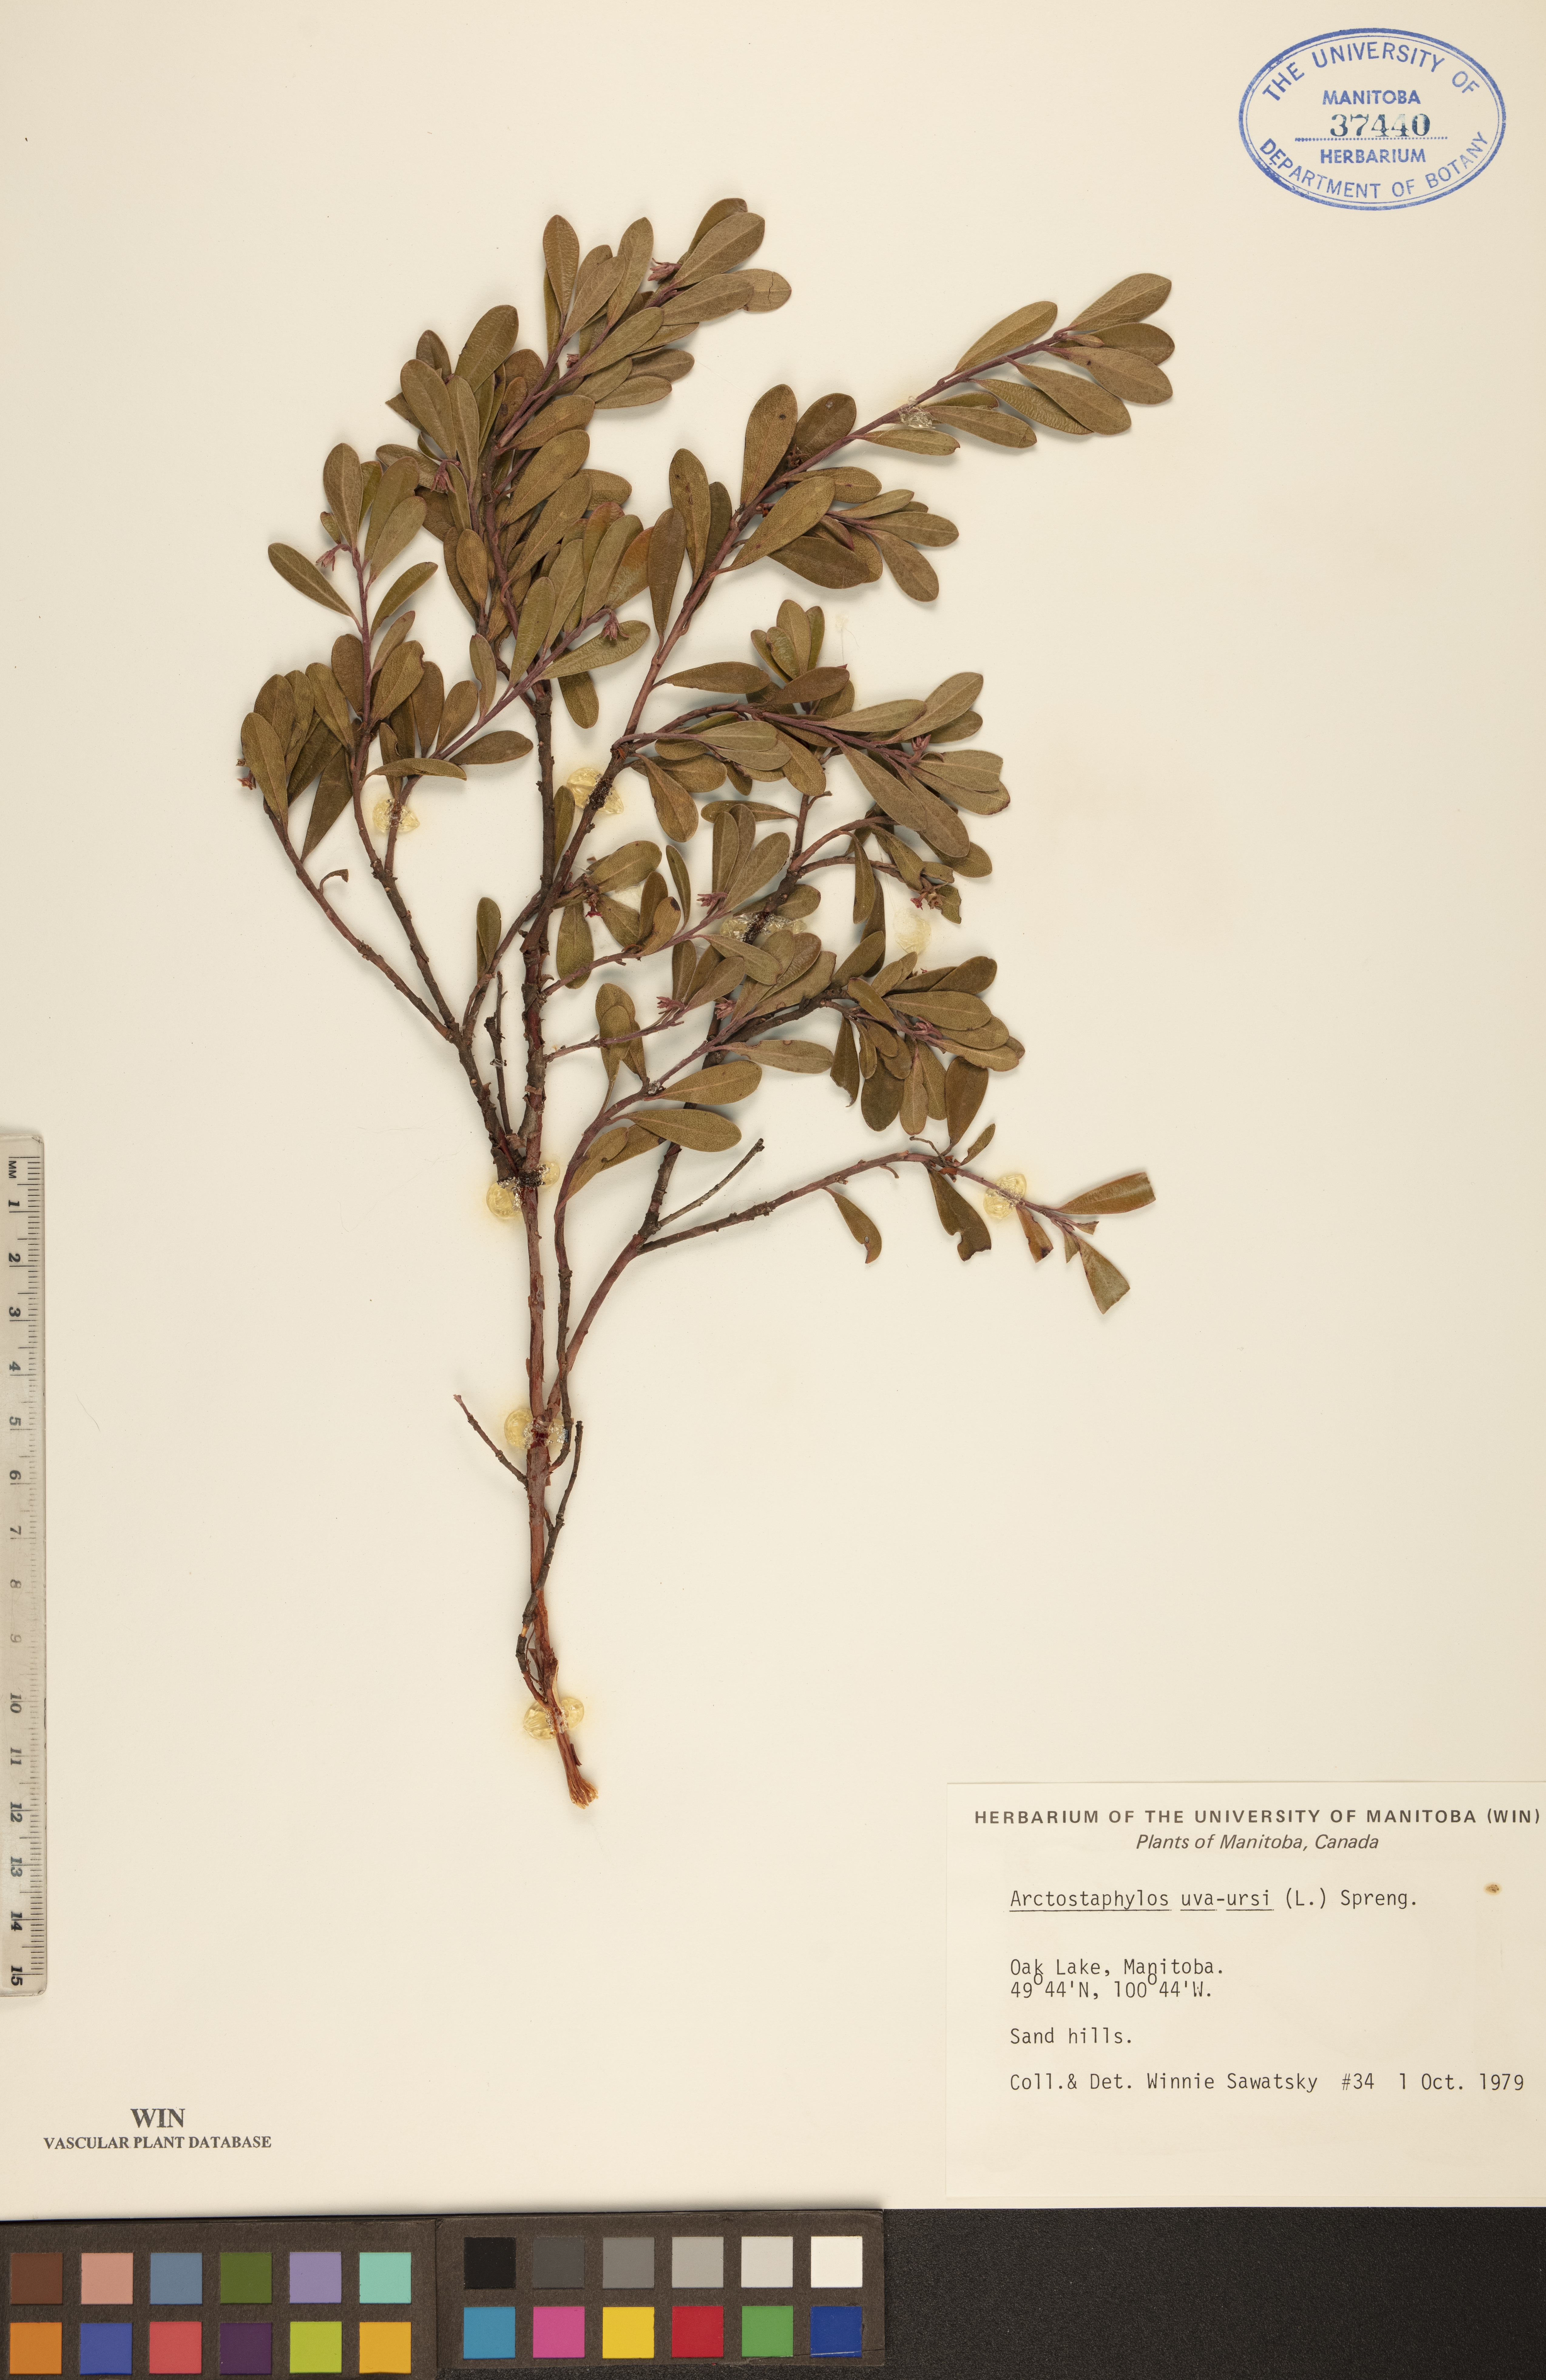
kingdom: Plantae
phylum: Tracheophyta
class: Magnoliopsida
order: Ericales
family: Ericaceae
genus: Arctostaphylos
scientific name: Arctostaphylos uva-ursi
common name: Bearberry
